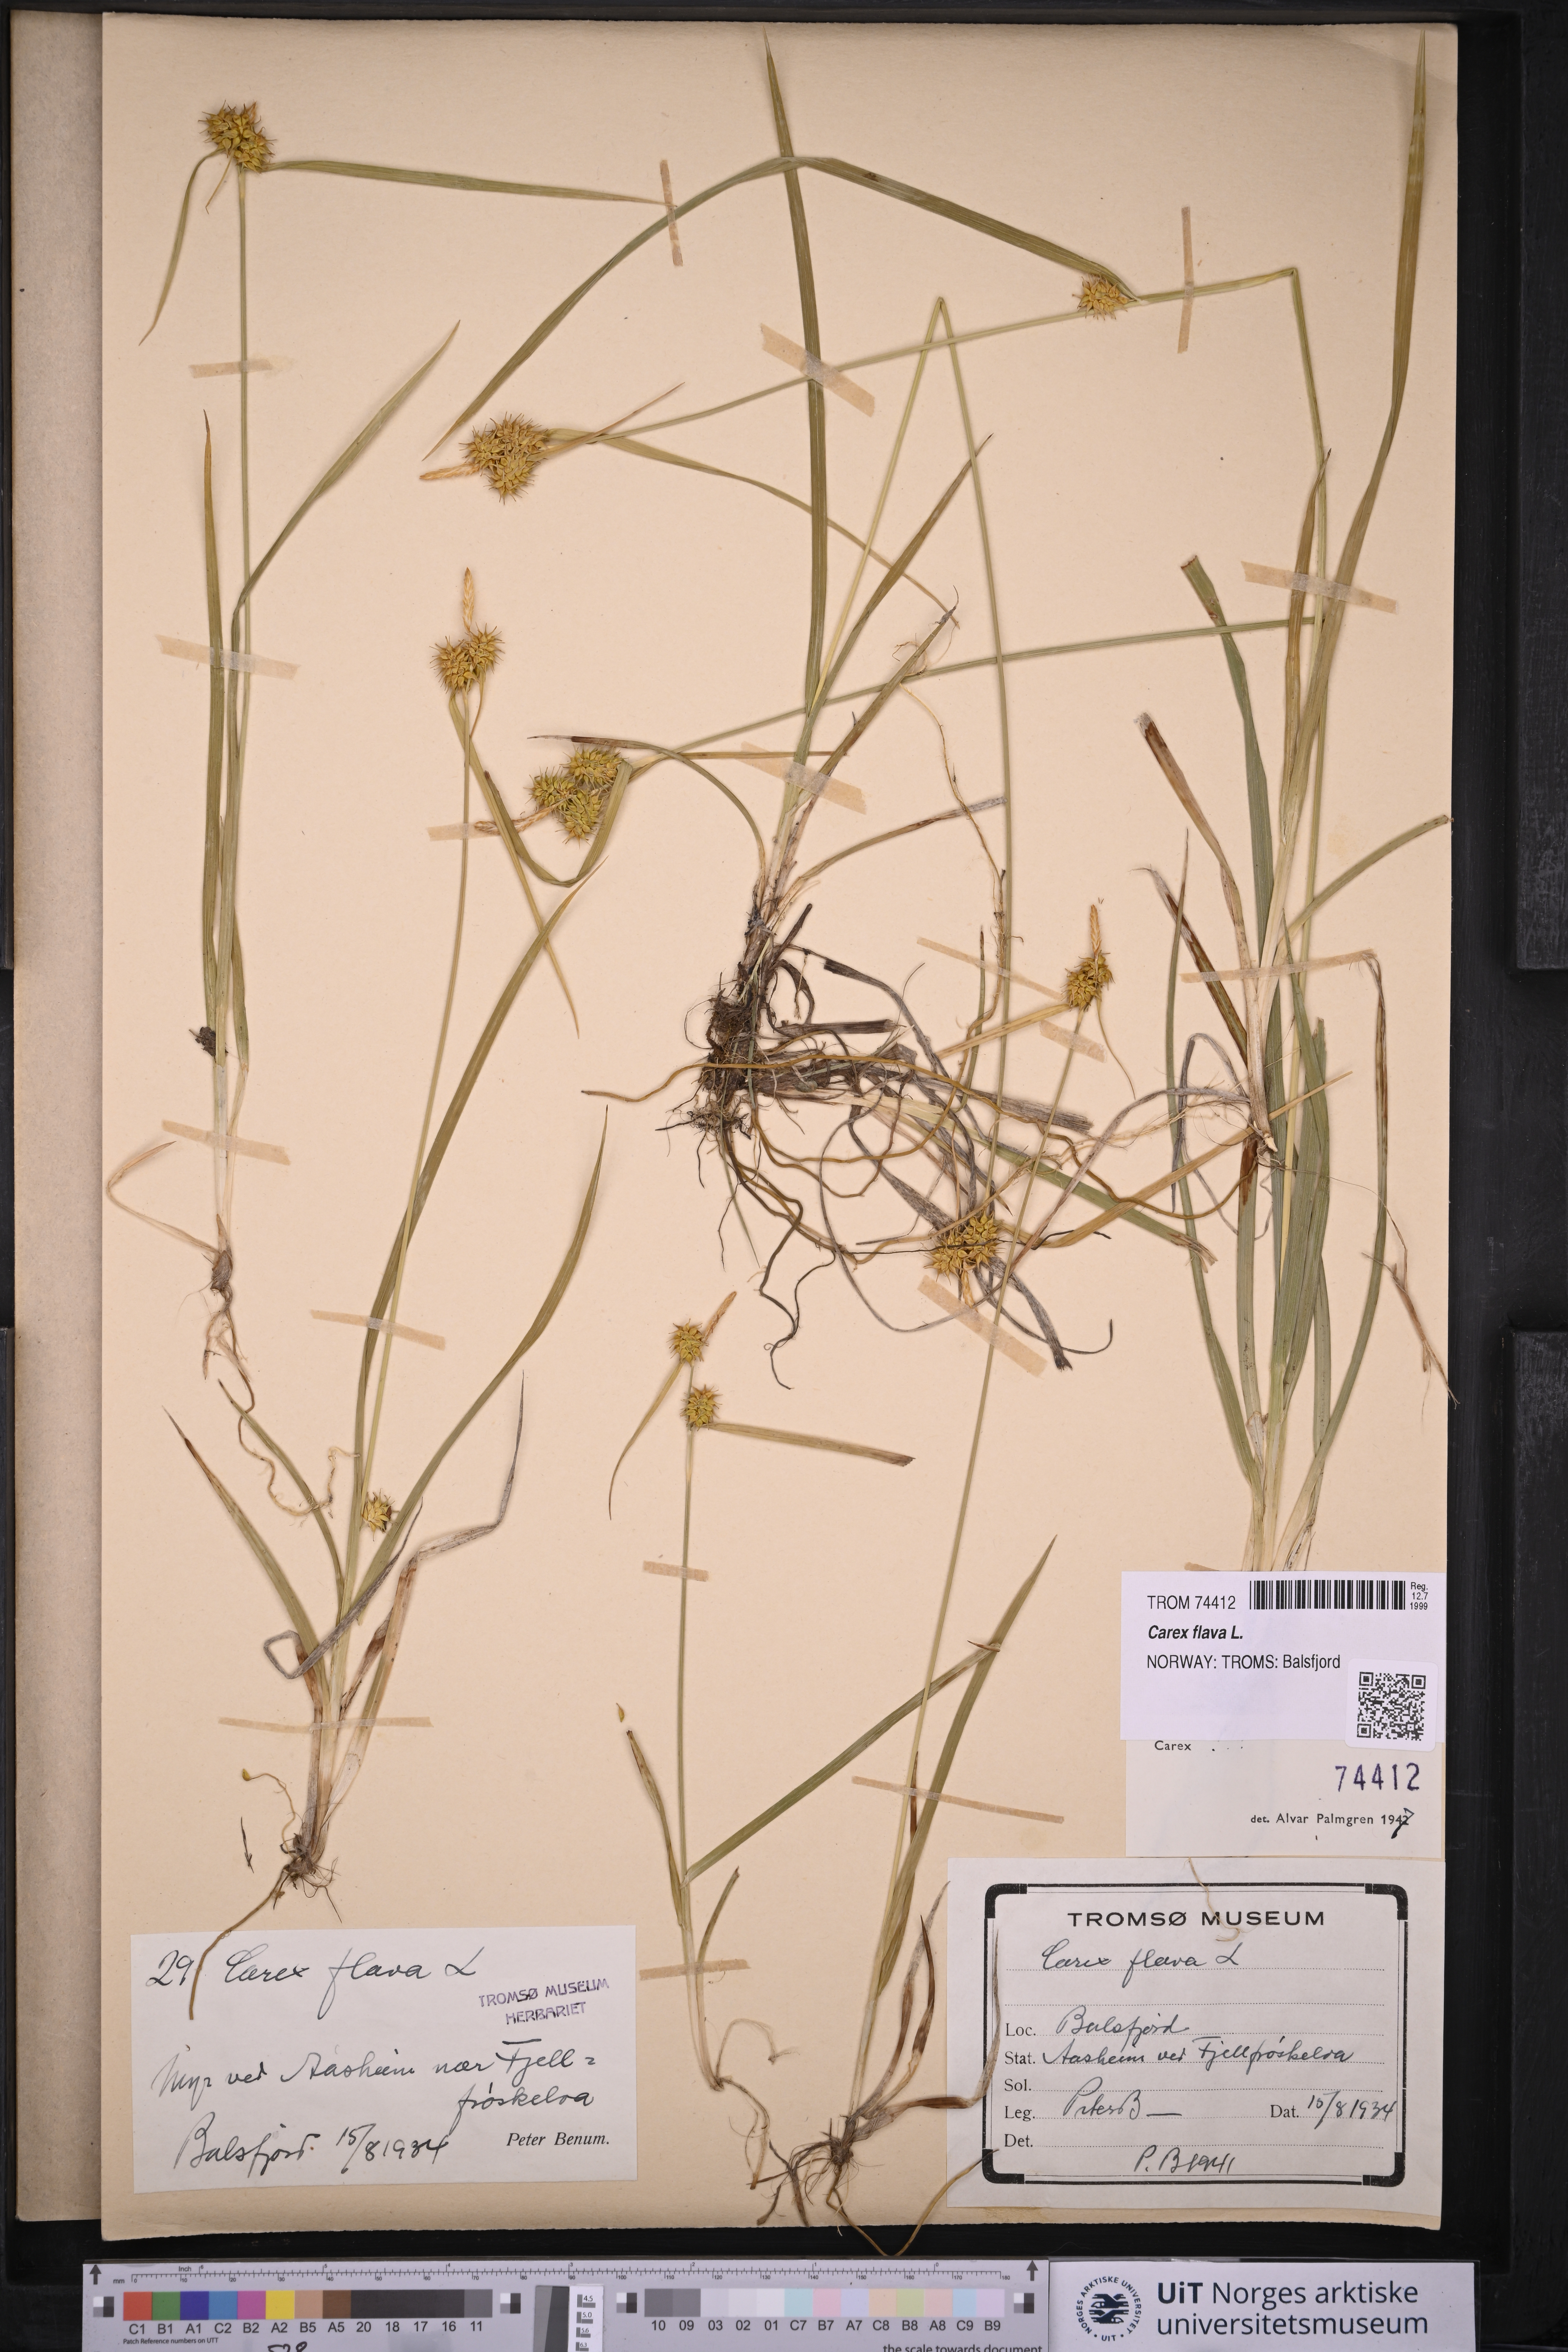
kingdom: Plantae
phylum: Tracheophyta
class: Liliopsida
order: Poales
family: Cyperaceae
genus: Carex
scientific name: Carex flava
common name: Large yellow-sedge
